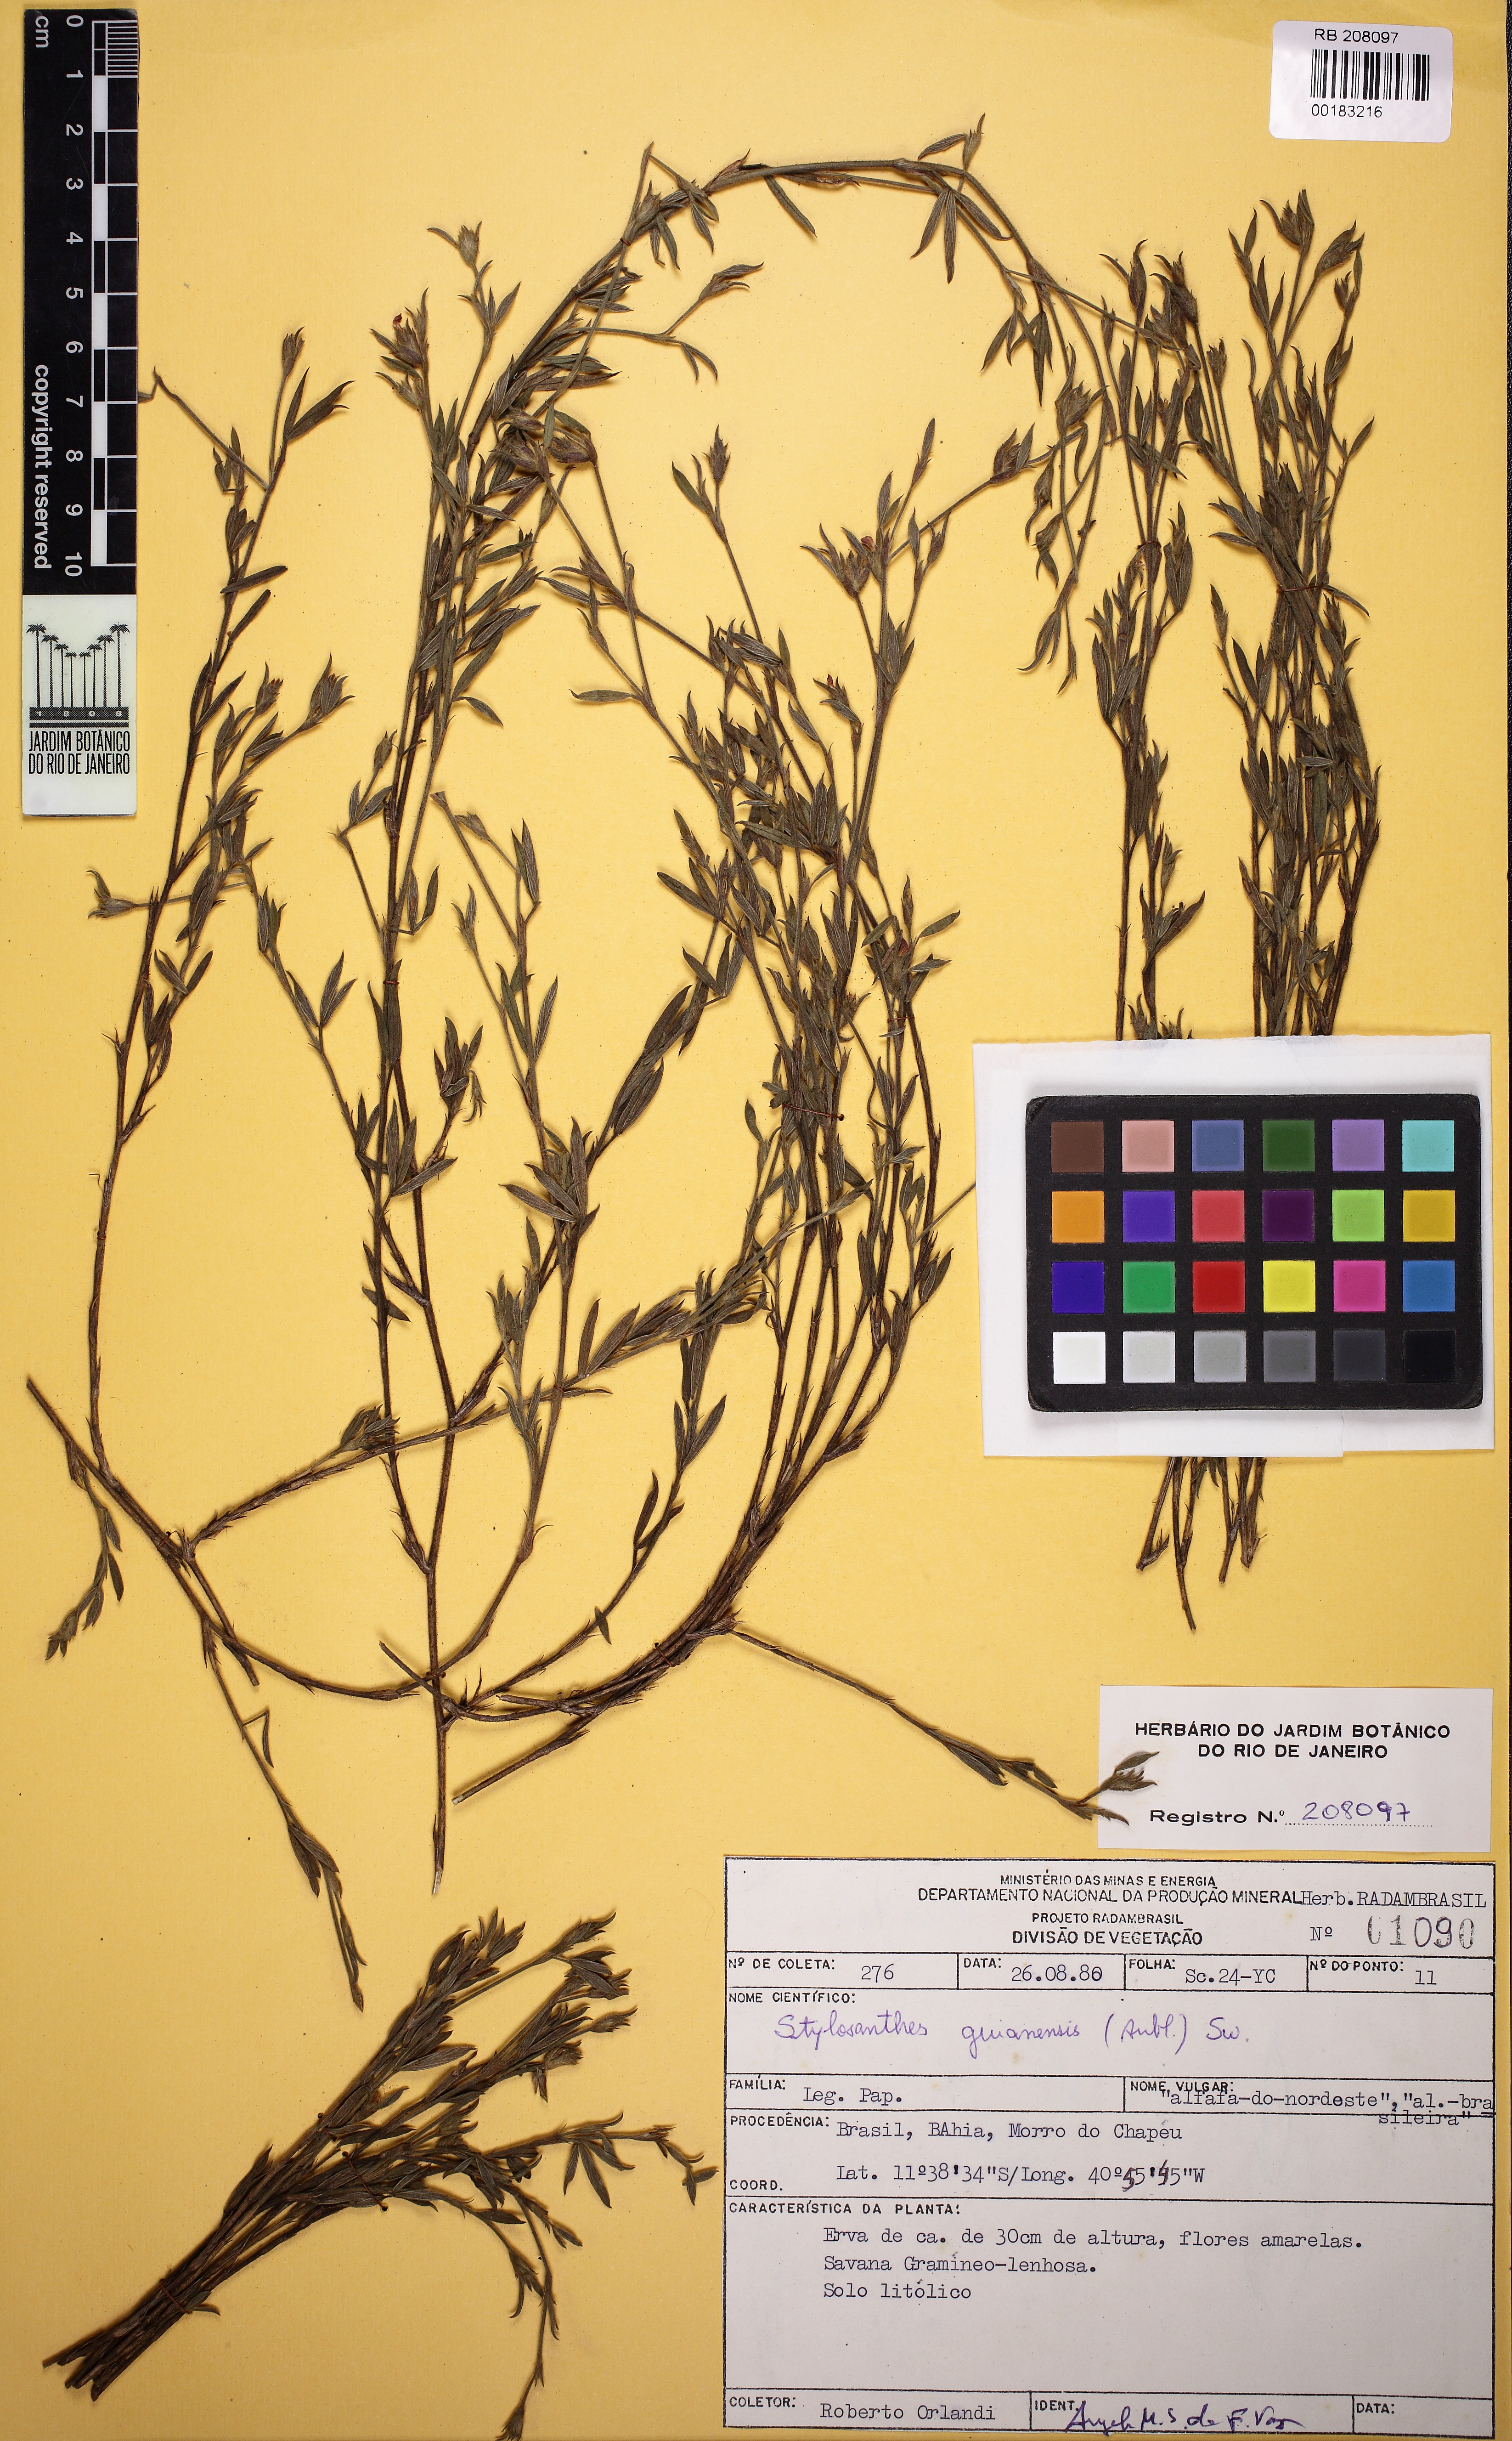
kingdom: Plantae
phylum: Tracheophyta
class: Magnoliopsida
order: Fabales
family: Fabaceae
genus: Stylosanthes
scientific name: Stylosanthes guianensis
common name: Pencil flower
